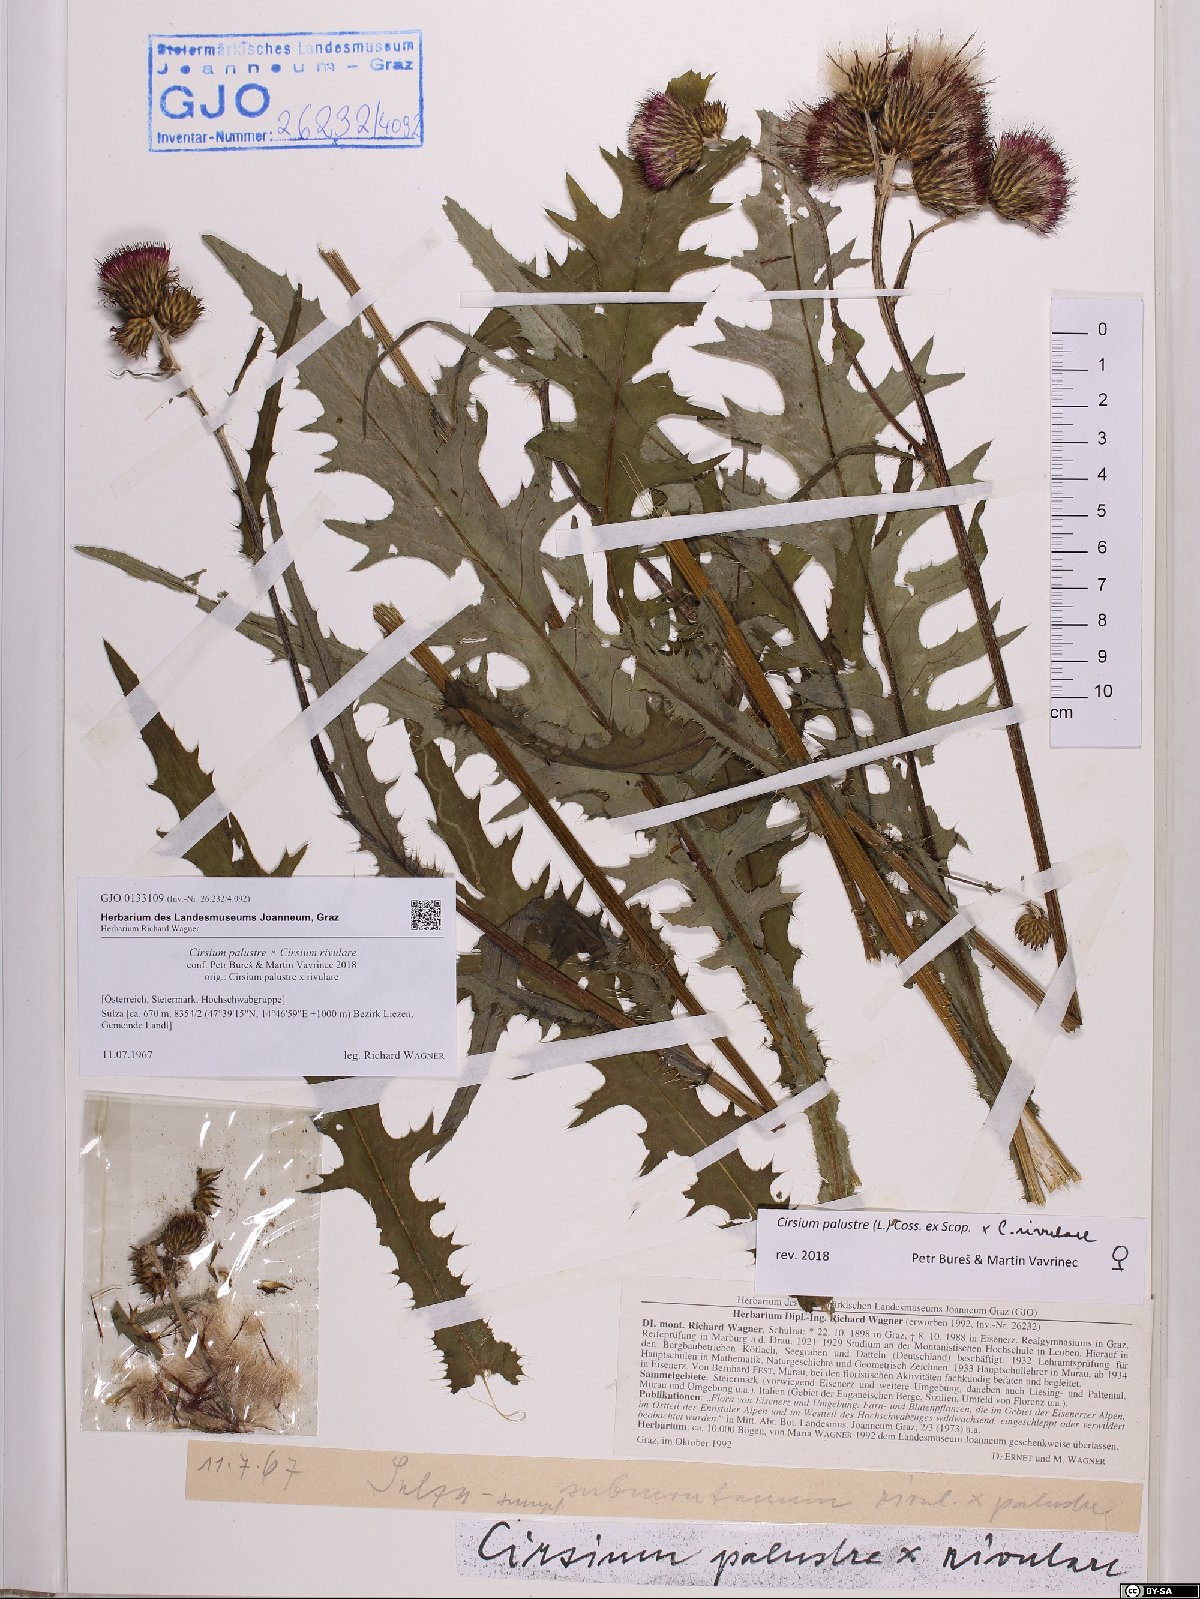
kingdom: Plantae
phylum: Tracheophyta
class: Magnoliopsida
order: Asterales
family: Asteraceae
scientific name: Asteraceae
